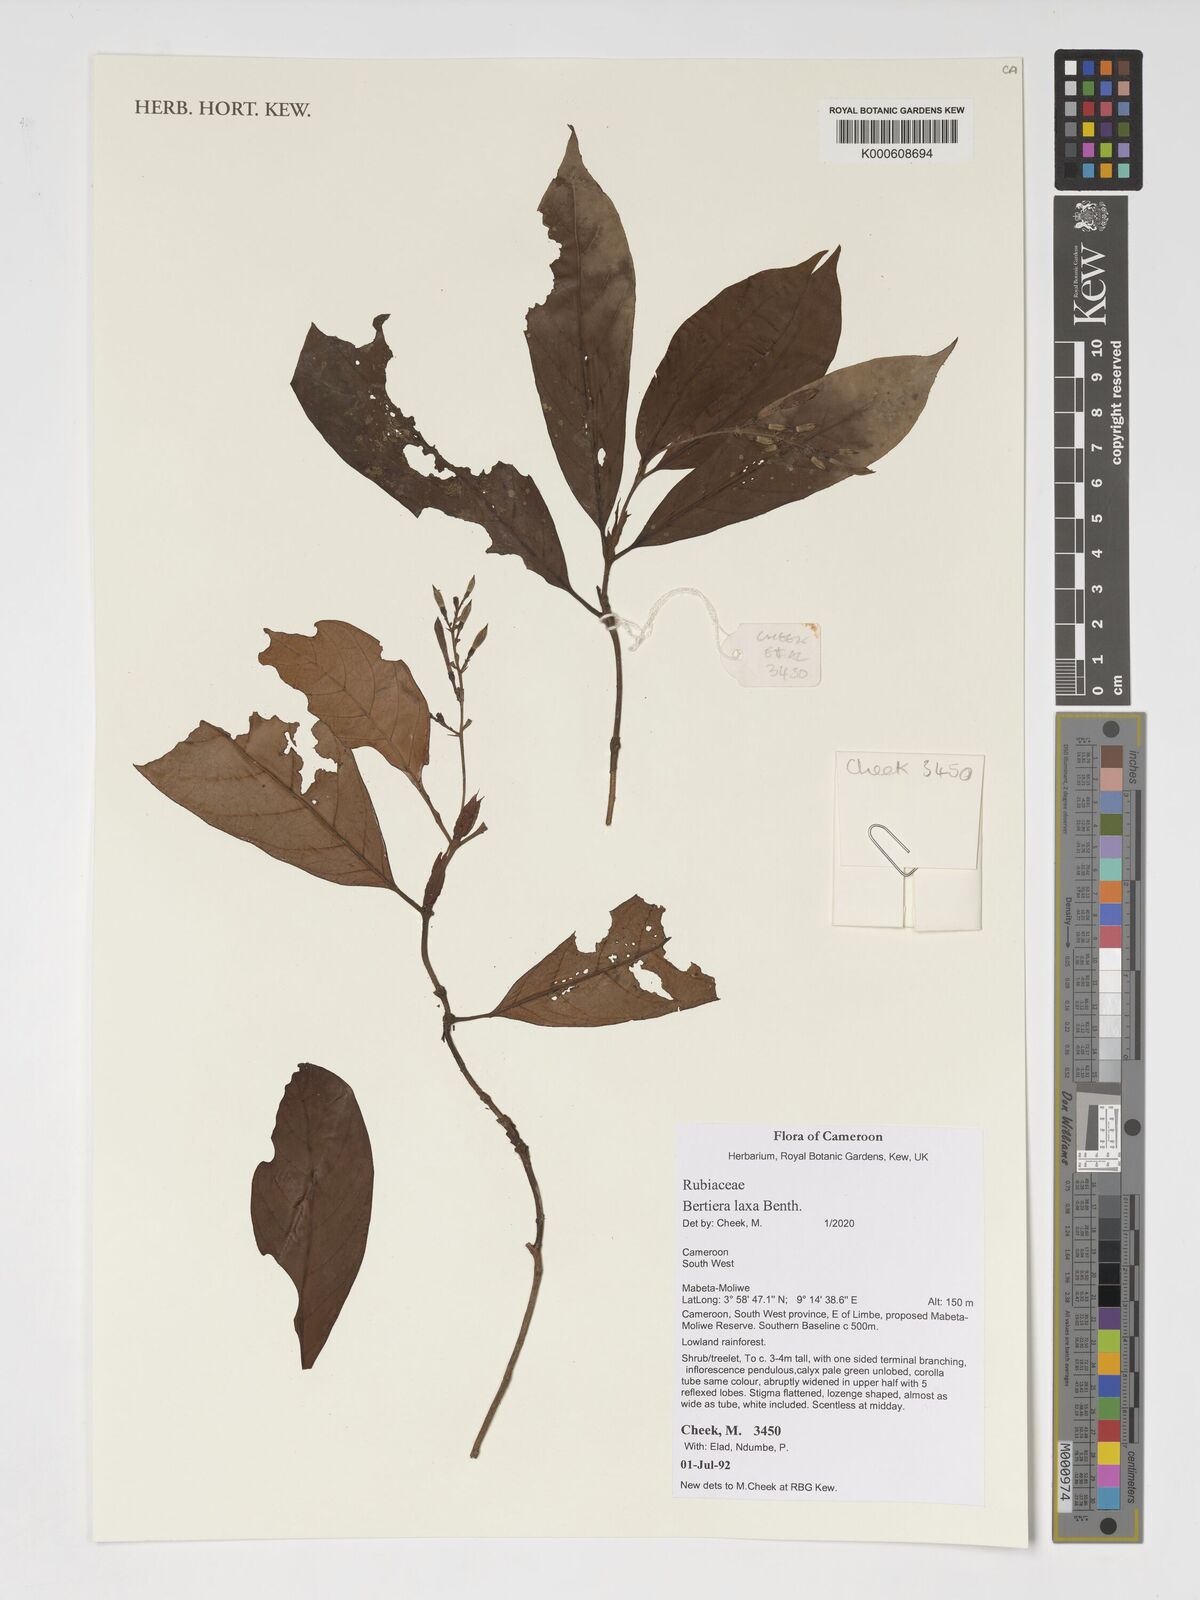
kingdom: Plantae
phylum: Tracheophyta
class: Magnoliopsida
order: Gentianales
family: Rubiaceae
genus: Bertiera
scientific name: Bertiera laxa
